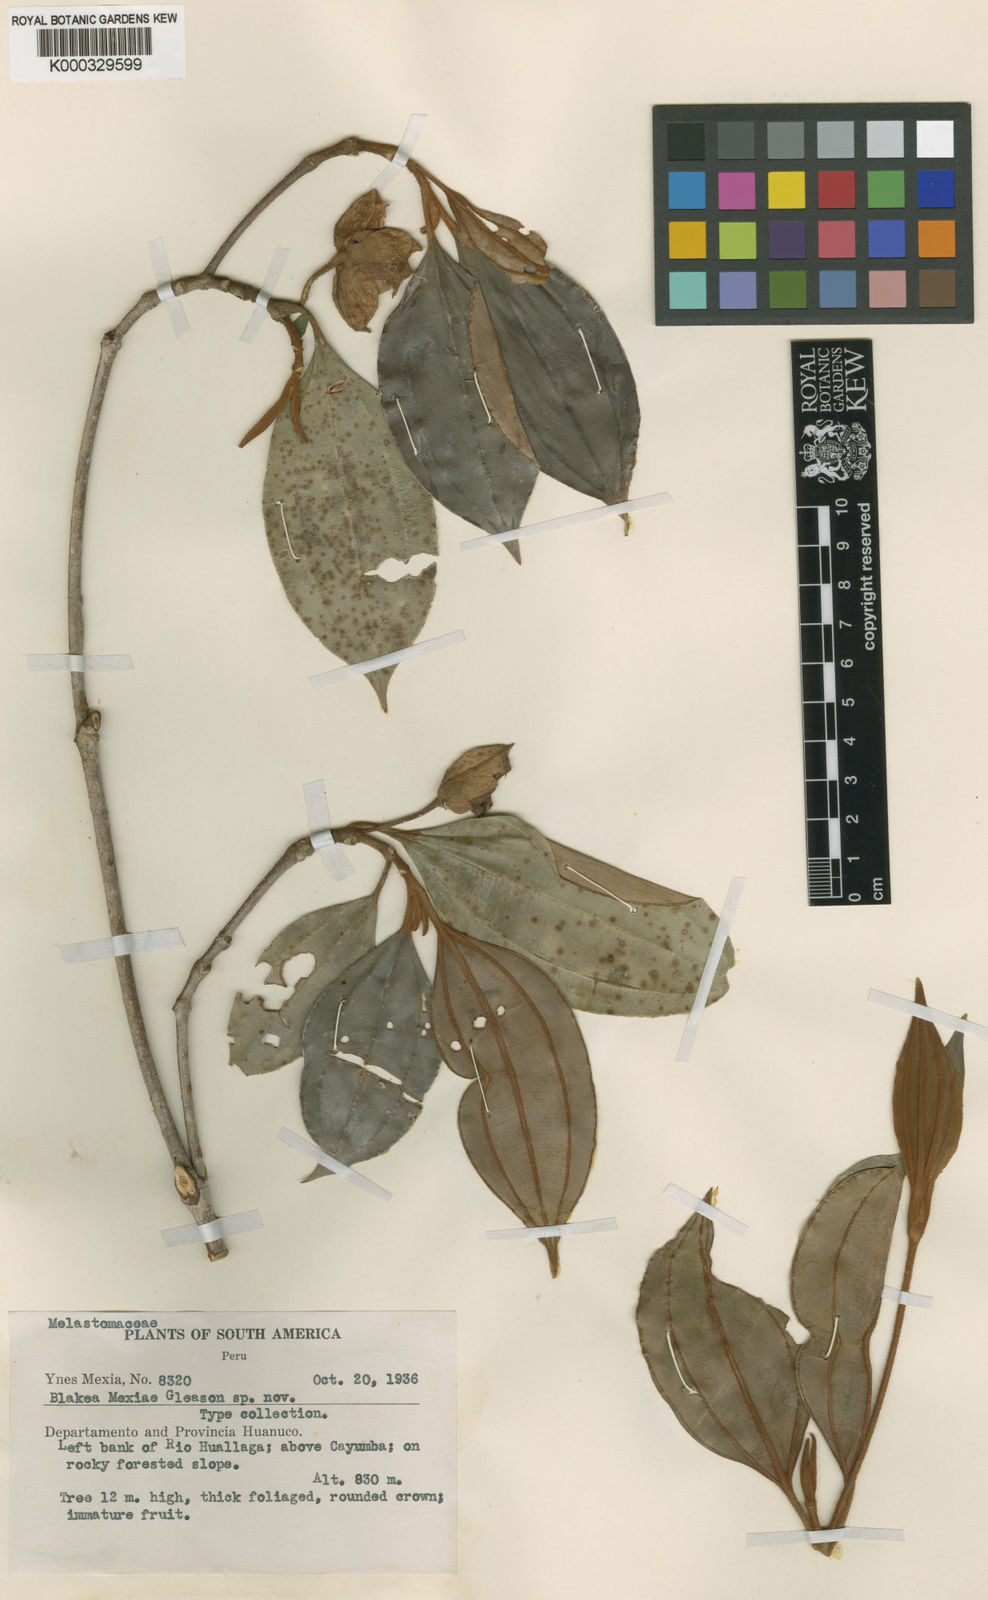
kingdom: Plantae
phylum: Tracheophyta
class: Magnoliopsida
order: Myrtales
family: Melastomataceae
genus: Blakea
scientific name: Blakea mexiae
